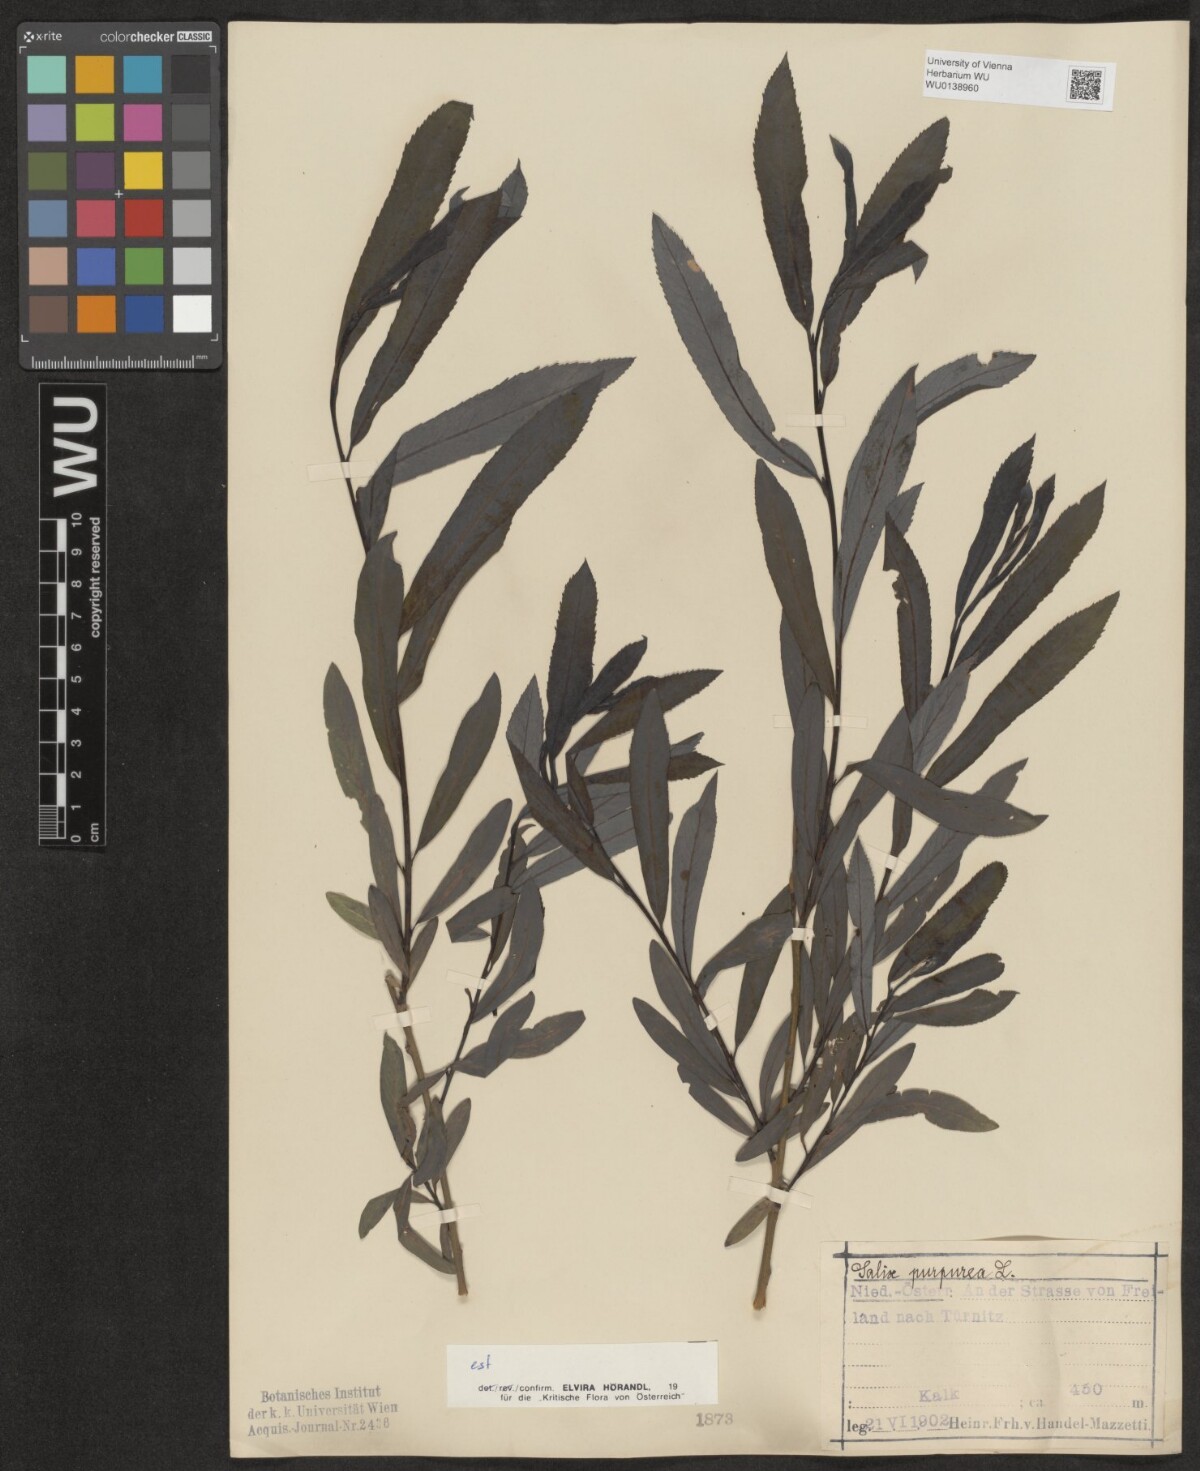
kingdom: Plantae
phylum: Tracheophyta
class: Magnoliopsida
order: Malpighiales
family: Salicaceae
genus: Salix
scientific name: Salix purpurea
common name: Purple willow
